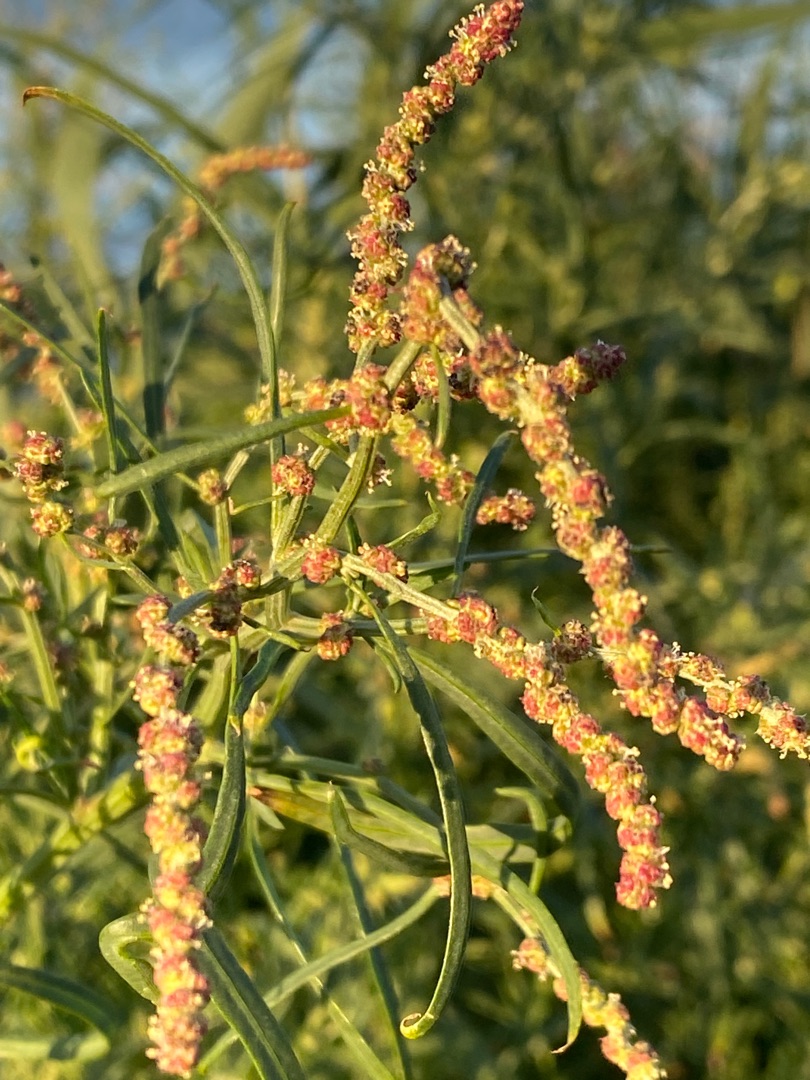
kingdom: Plantae
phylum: Tracheophyta
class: Magnoliopsida
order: Caryophyllales
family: Amaranthaceae
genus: Atriplex
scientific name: Atriplex littoralis
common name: Strand-mælde
